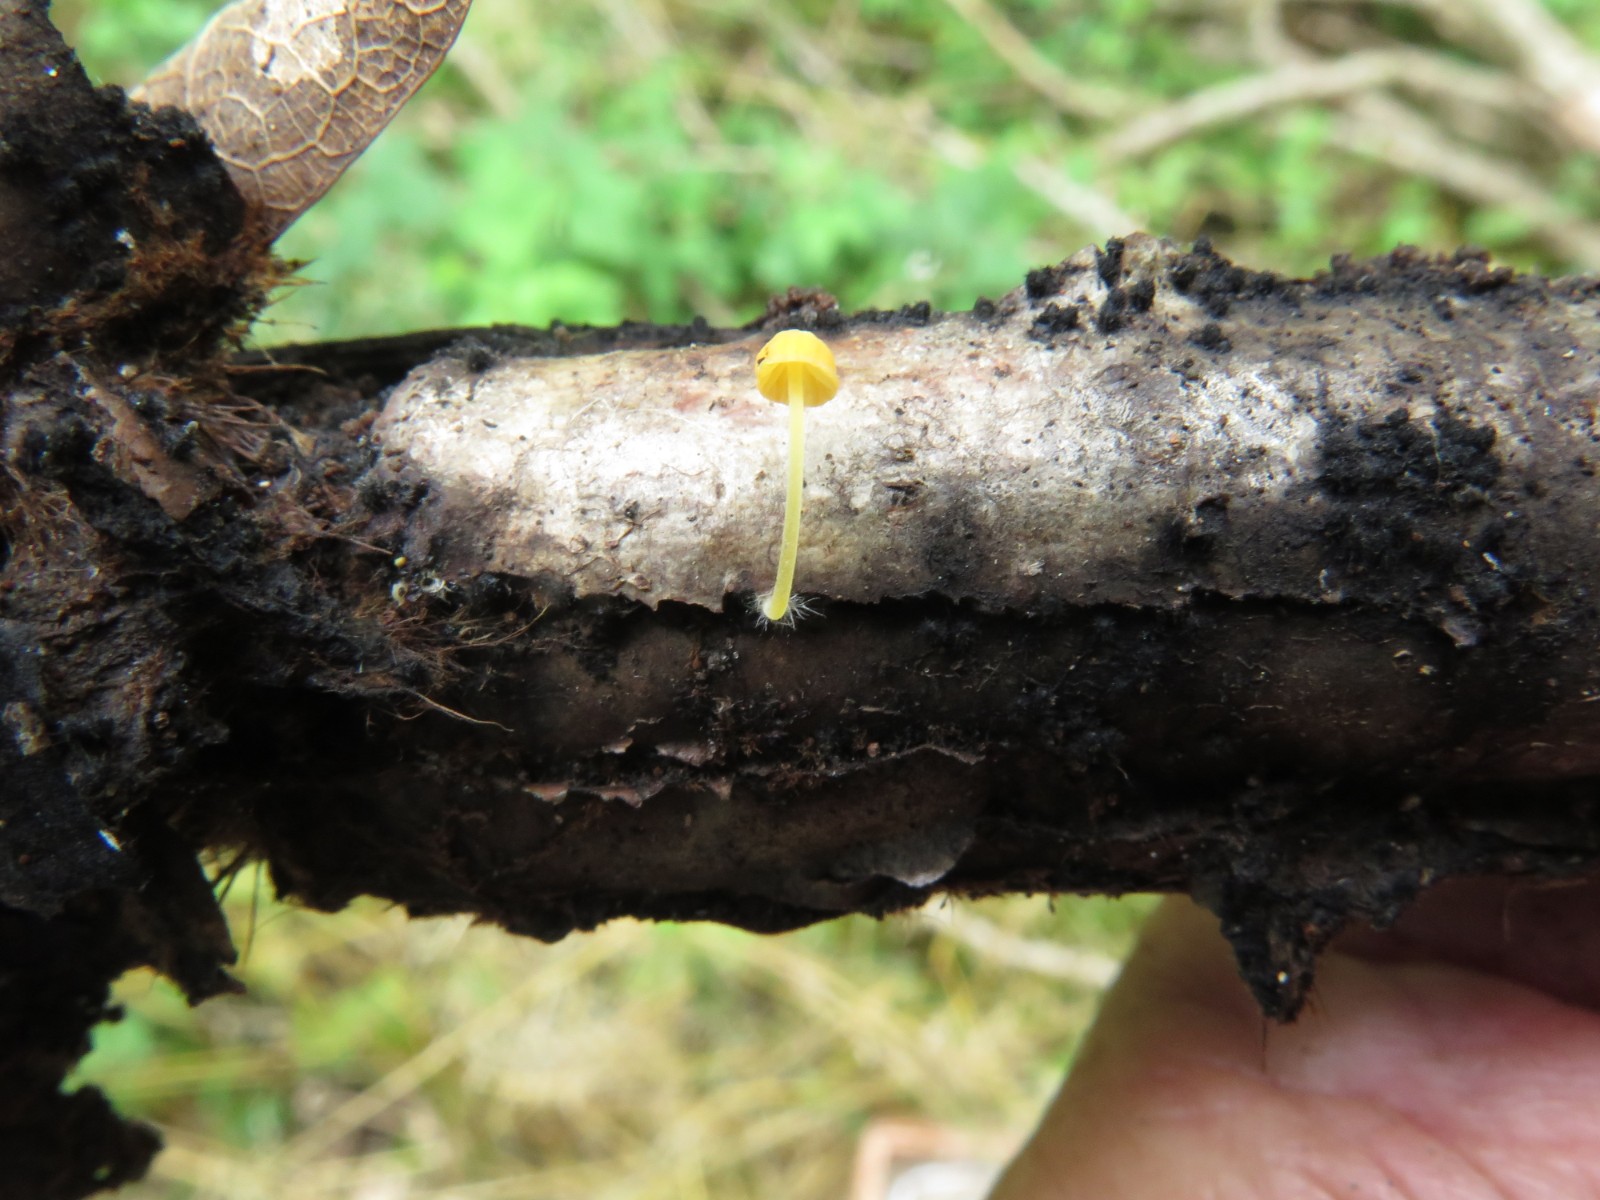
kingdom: Fungi
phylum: Basidiomycota
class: Agaricomycetes
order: Agaricales
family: Mycenaceae
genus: Mycena
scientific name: Mycena acicula
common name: orange huesvamp
